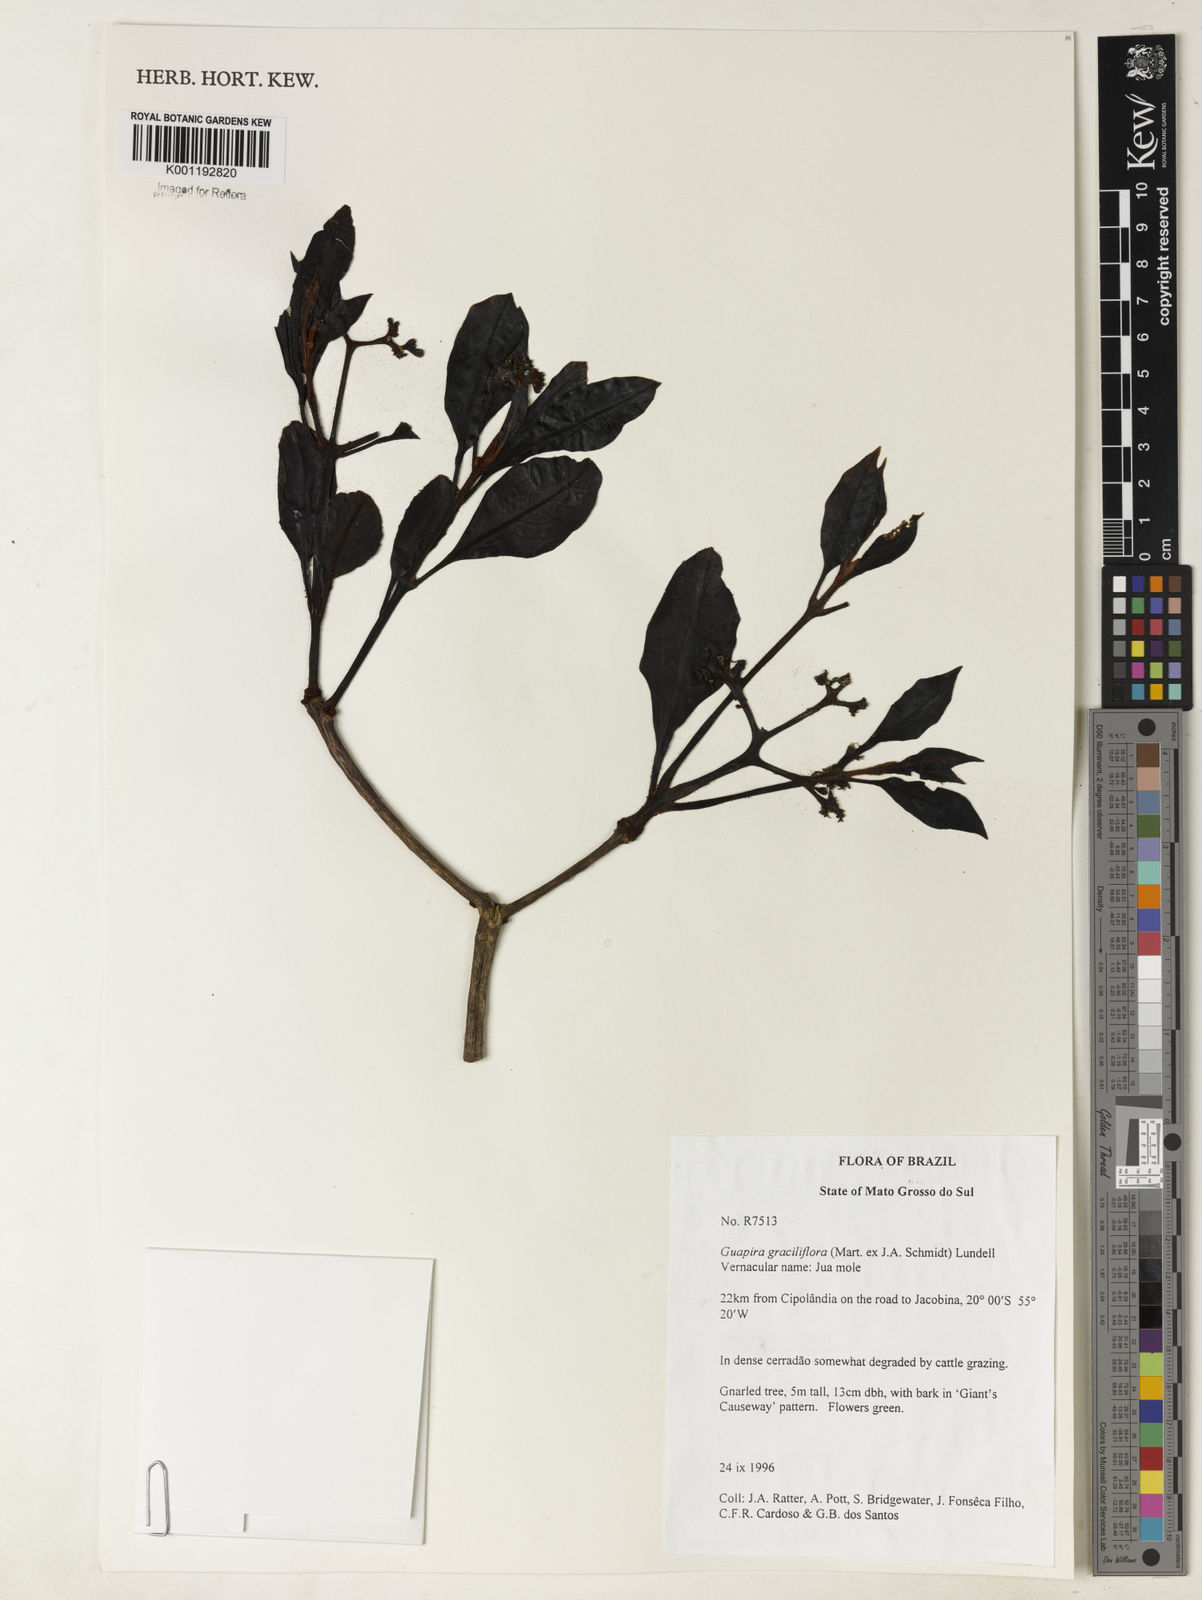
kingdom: Plantae
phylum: Tracheophyta
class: Magnoliopsida
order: Caryophyllales
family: Nyctaginaceae
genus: Guapira
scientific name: Guapira graciliflora
